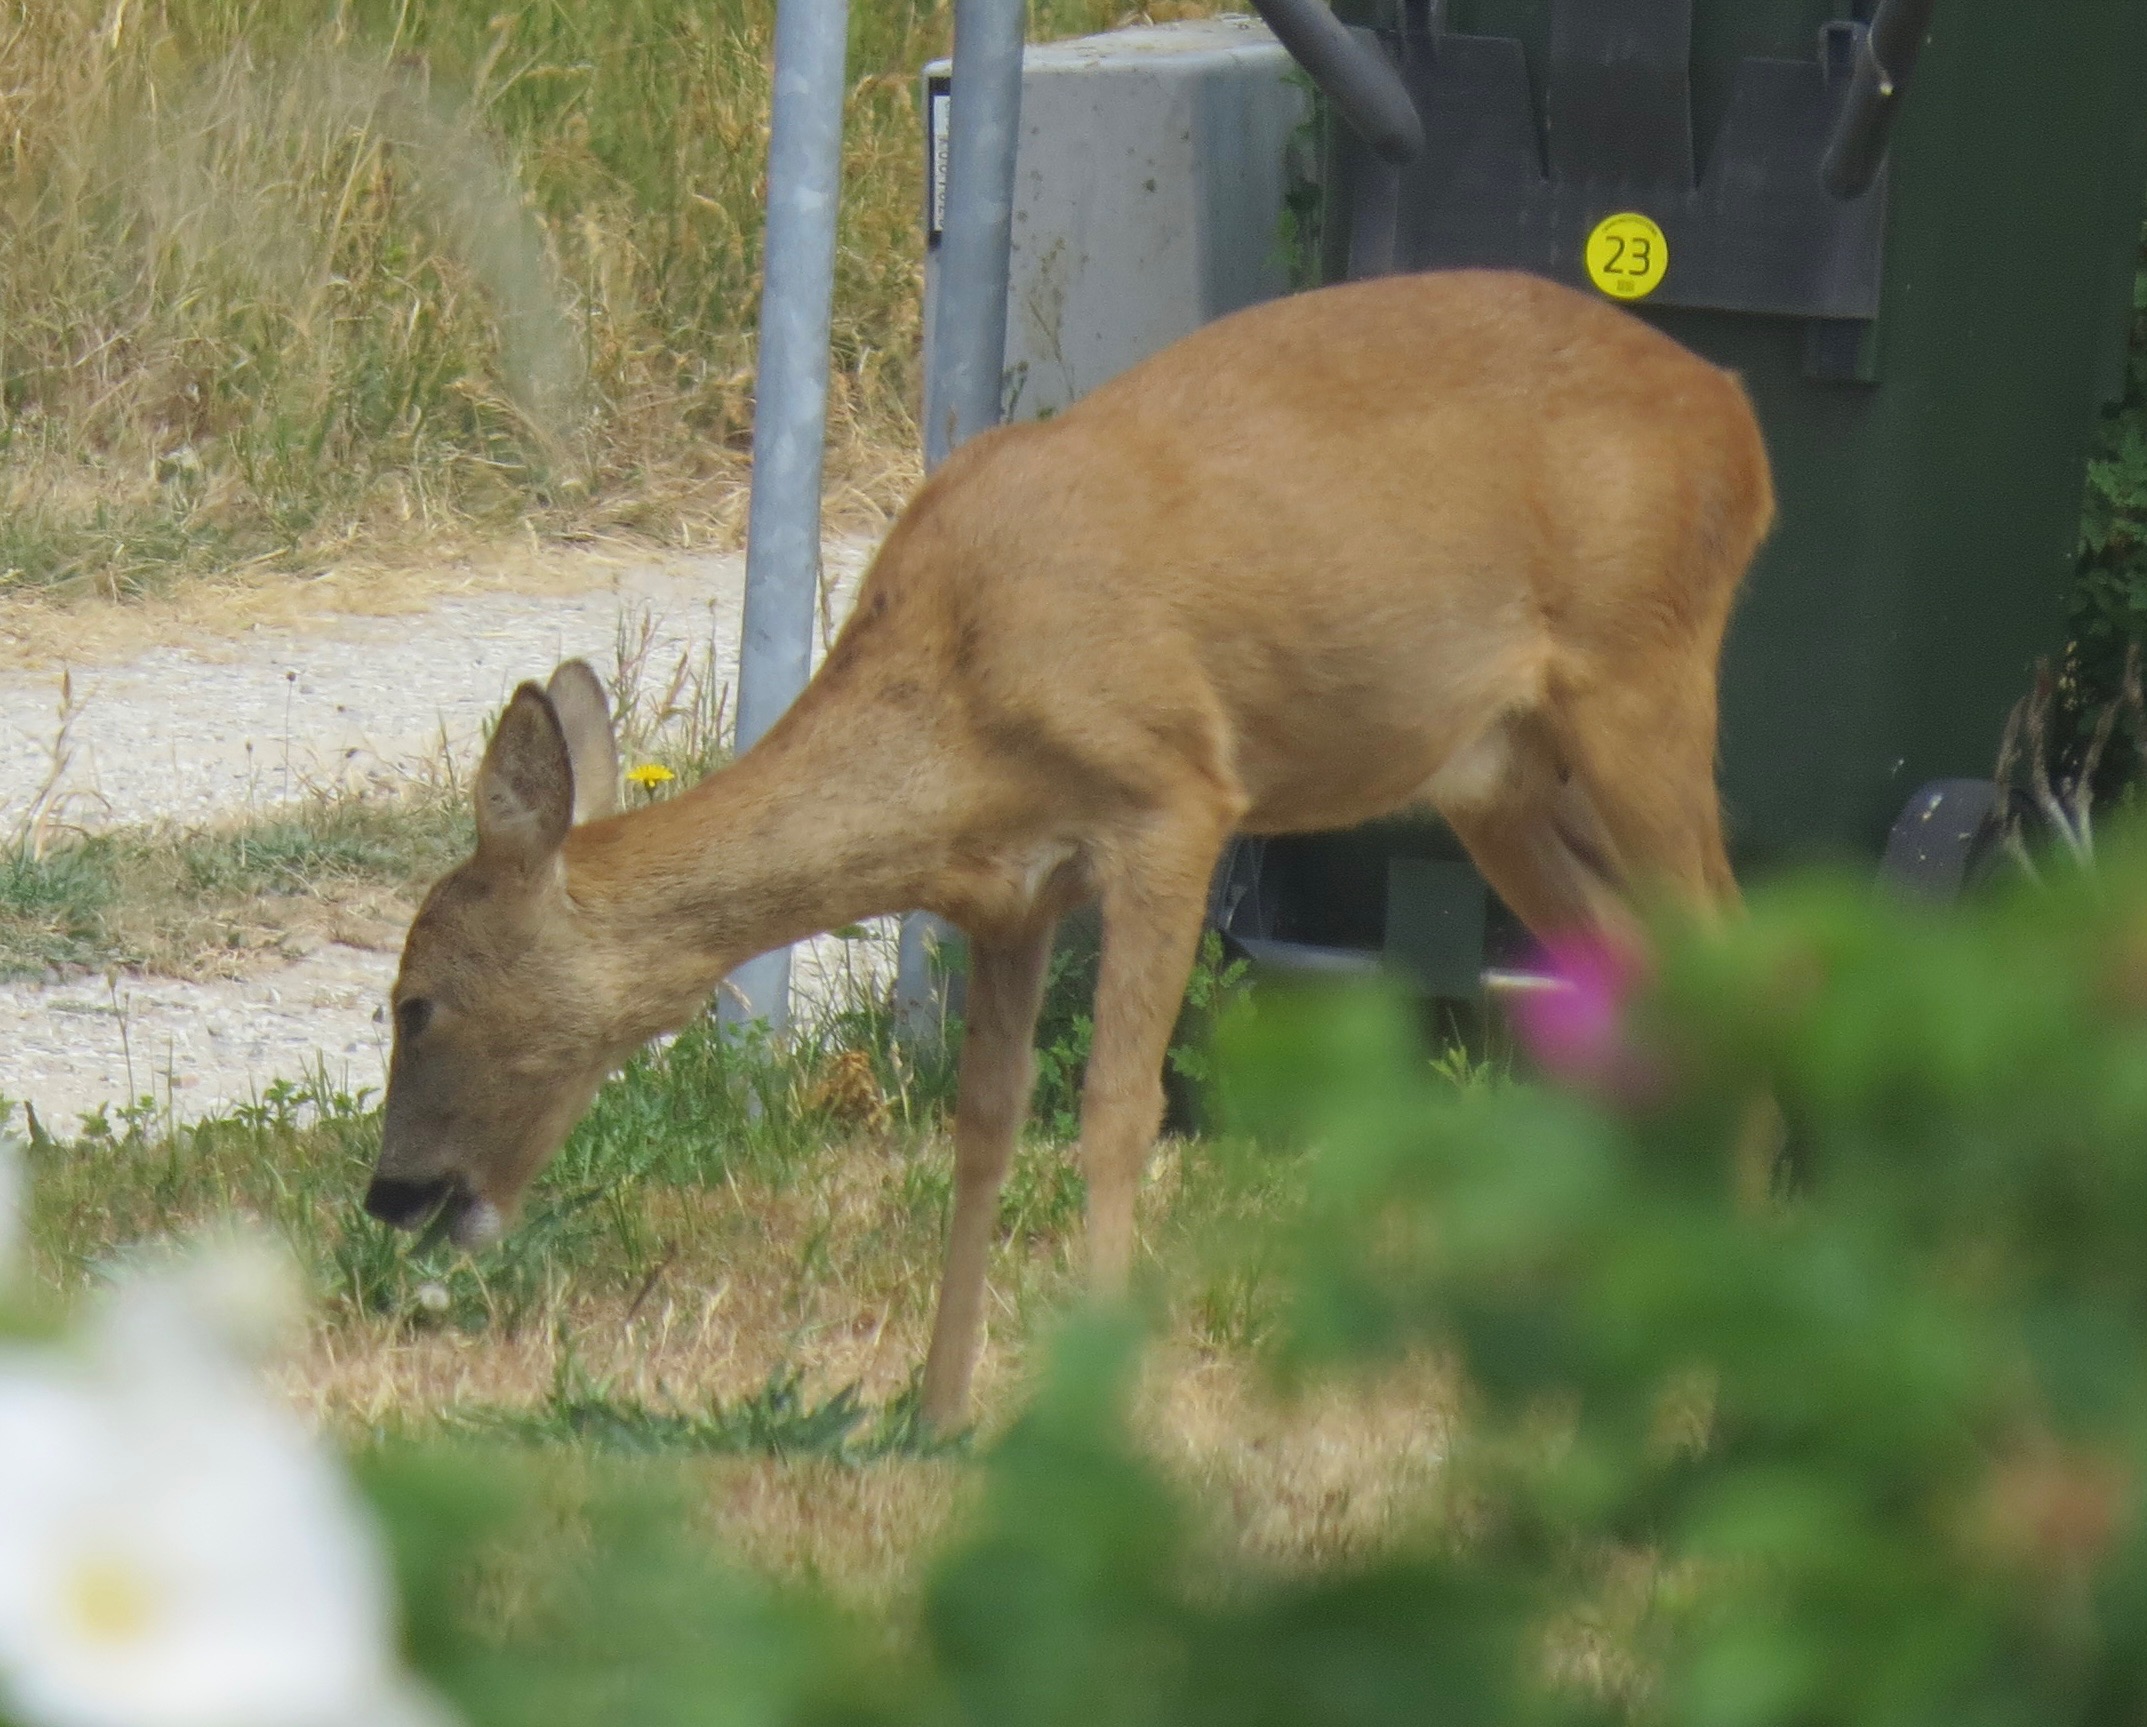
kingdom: Animalia
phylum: Chordata
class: Mammalia
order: Artiodactyla
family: Cervidae
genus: Capreolus
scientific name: Capreolus capreolus
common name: Rådyr
